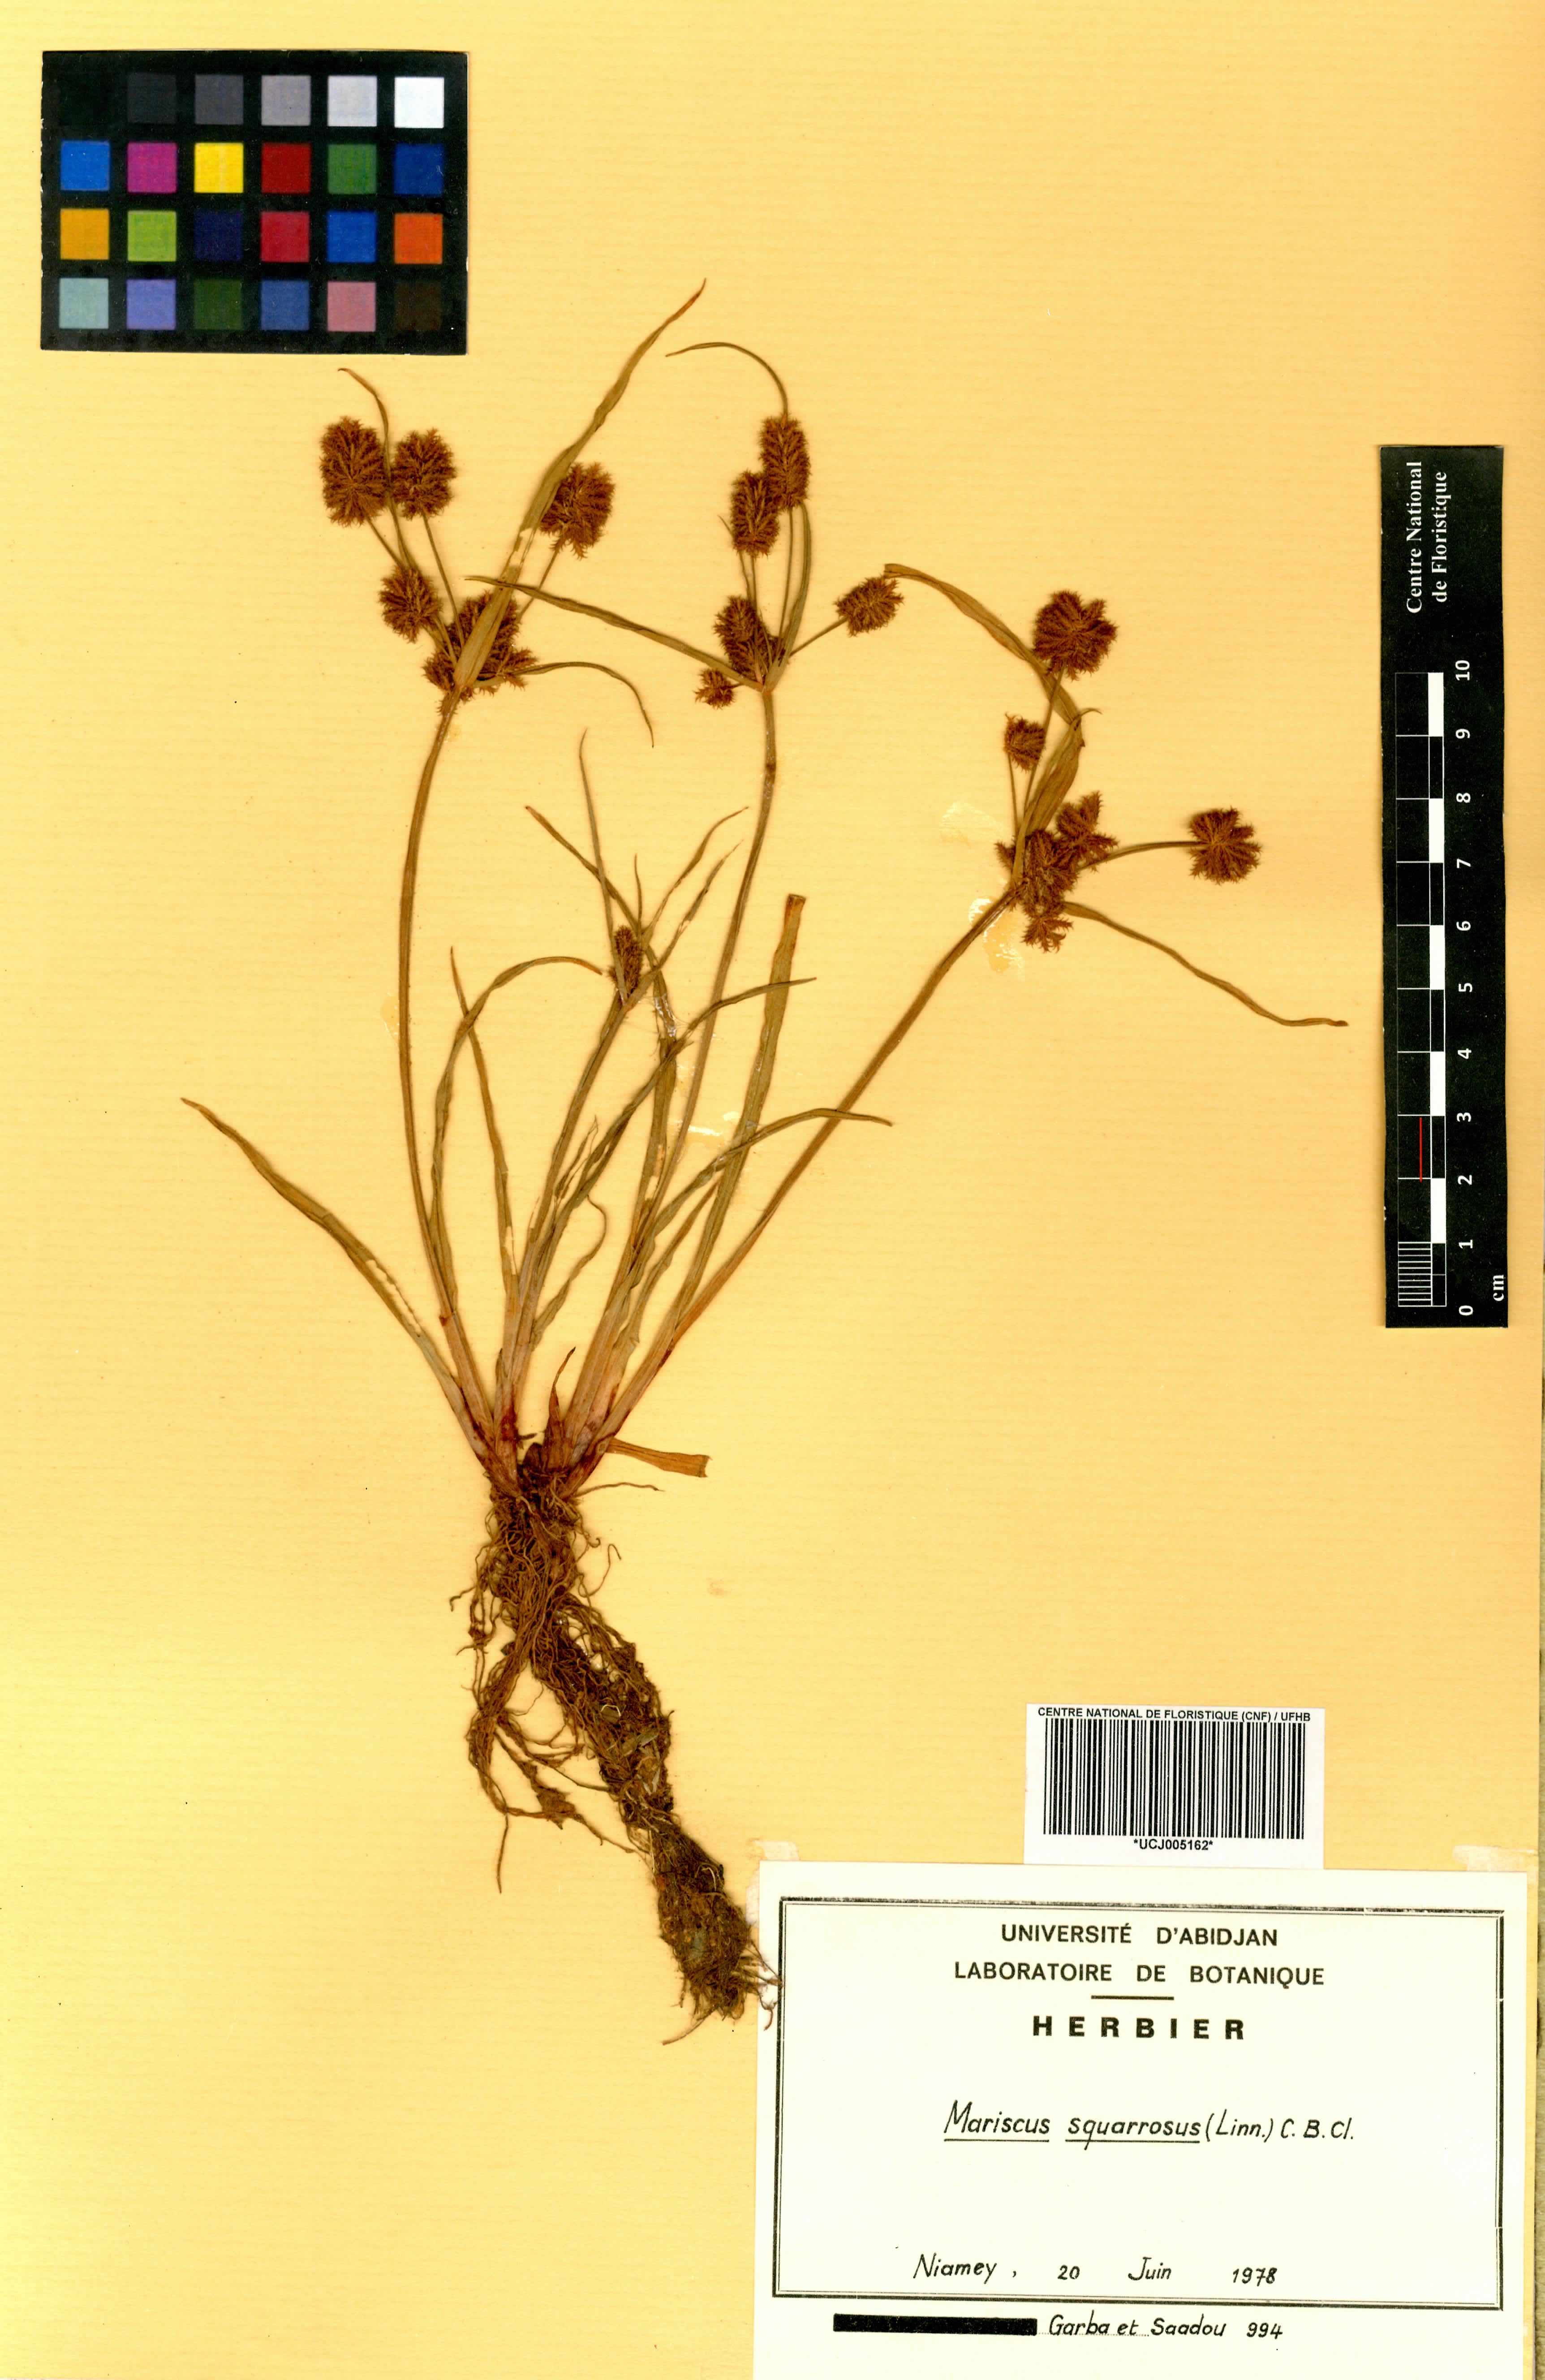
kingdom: Plantae
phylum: Tracheophyta
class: Liliopsida
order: Poales
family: Cyperaceae
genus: Cyperus
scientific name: Cyperus squarrosus
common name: Awned cyperus
